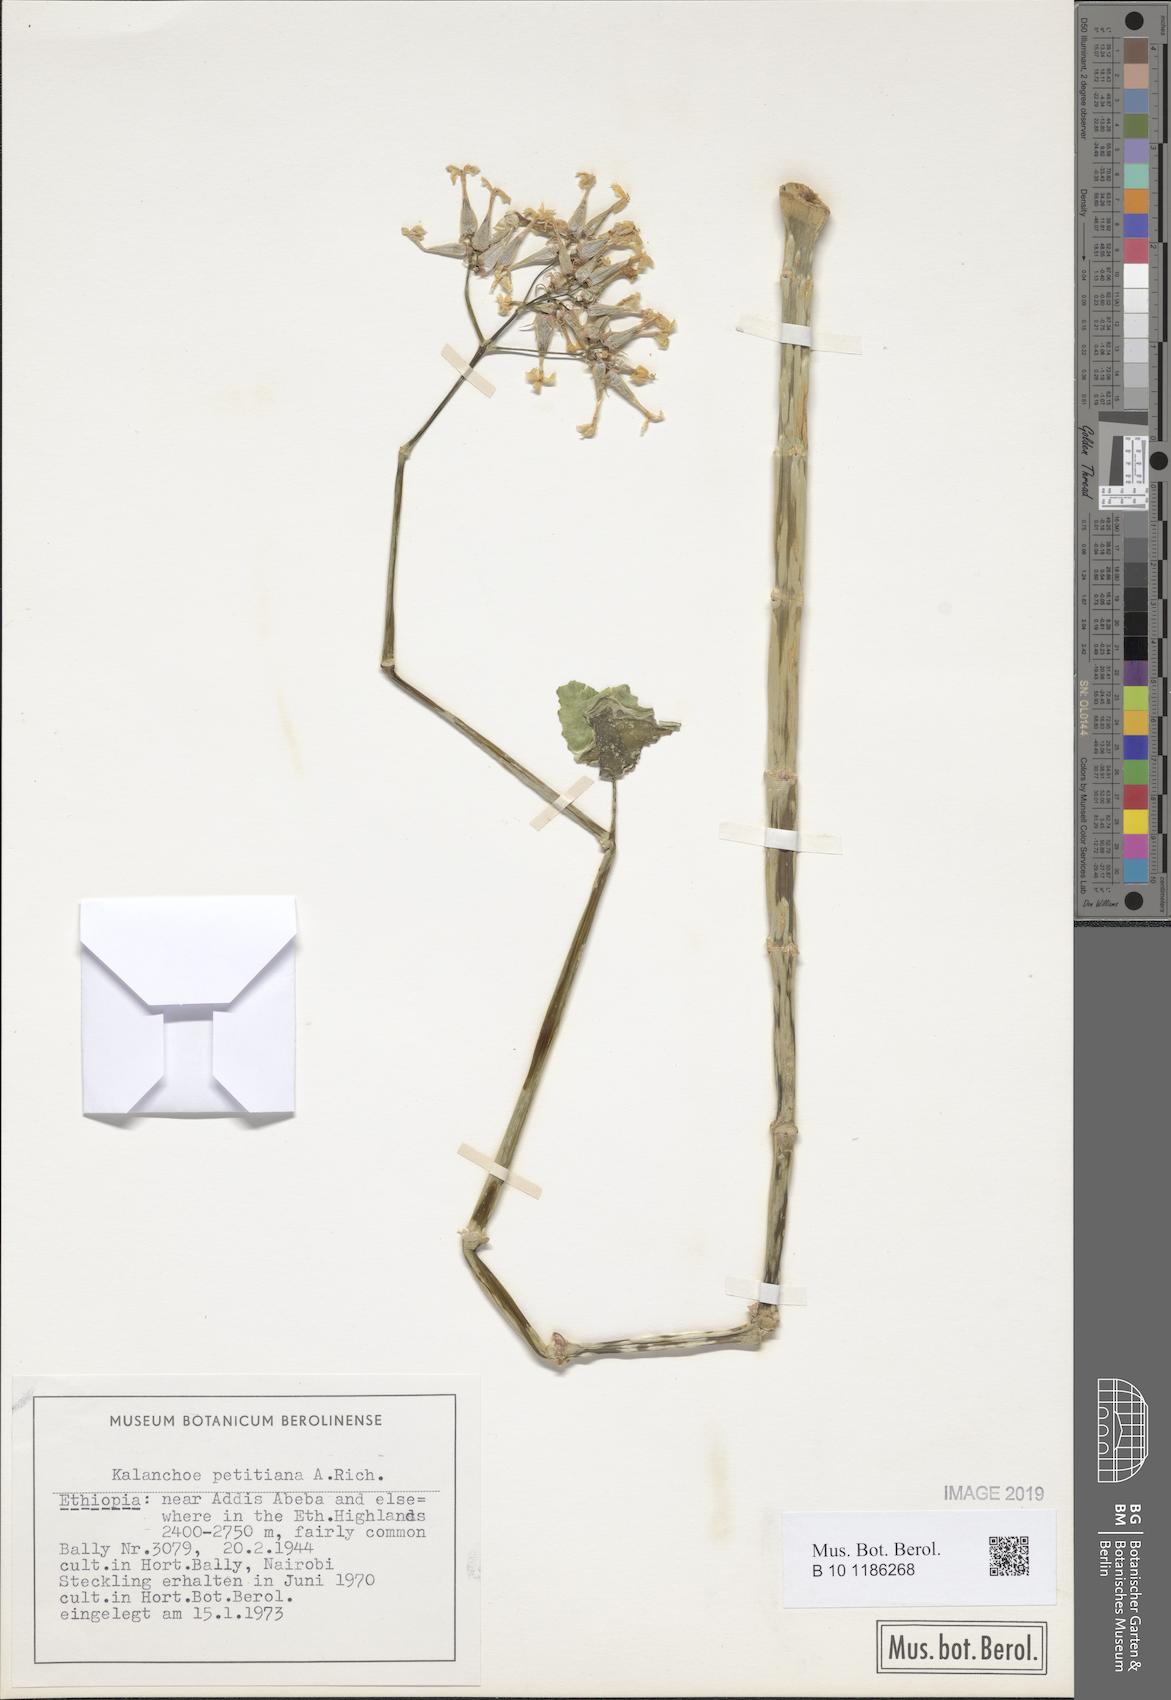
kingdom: Plantae
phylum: Tracheophyta
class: Magnoliopsida
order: Saxifragales
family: Crassulaceae
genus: Kalanchoe
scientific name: Kalanchoe petitiana
